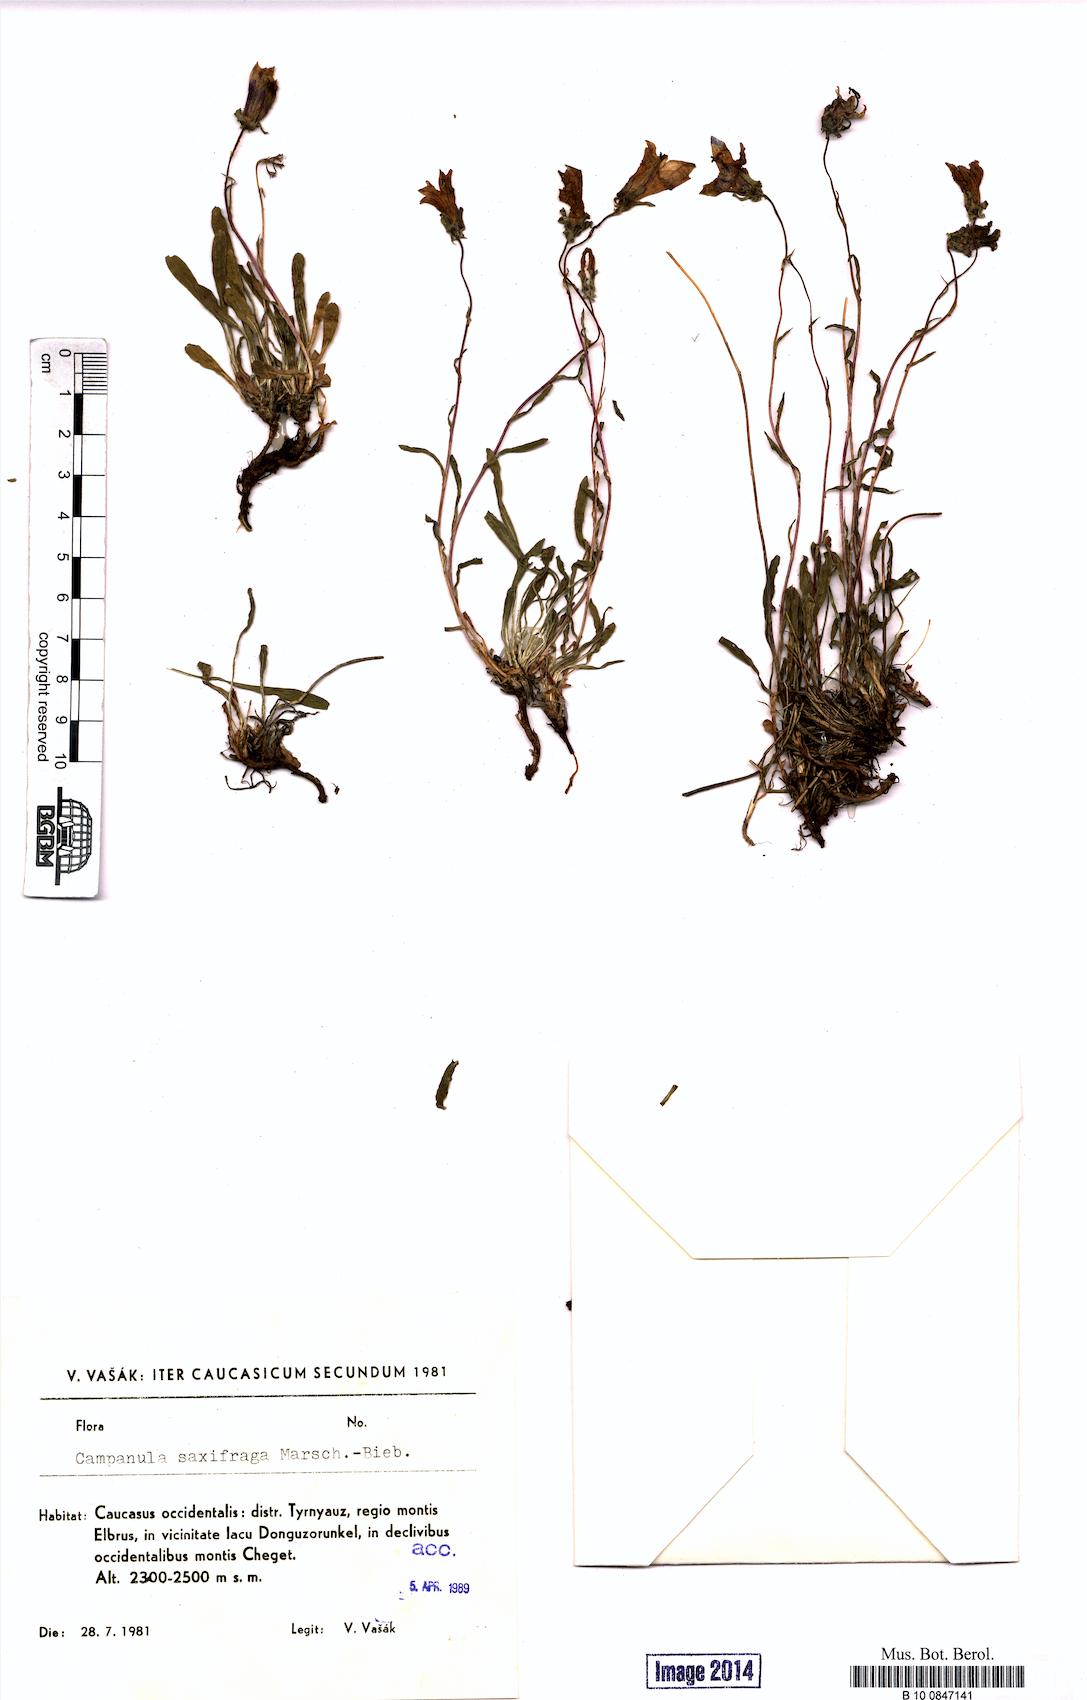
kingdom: Plantae
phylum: Tracheophyta
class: Magnoliopsida
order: Asterales
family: Campanulaceae
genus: Campanula
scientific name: Campanula saxifraga
